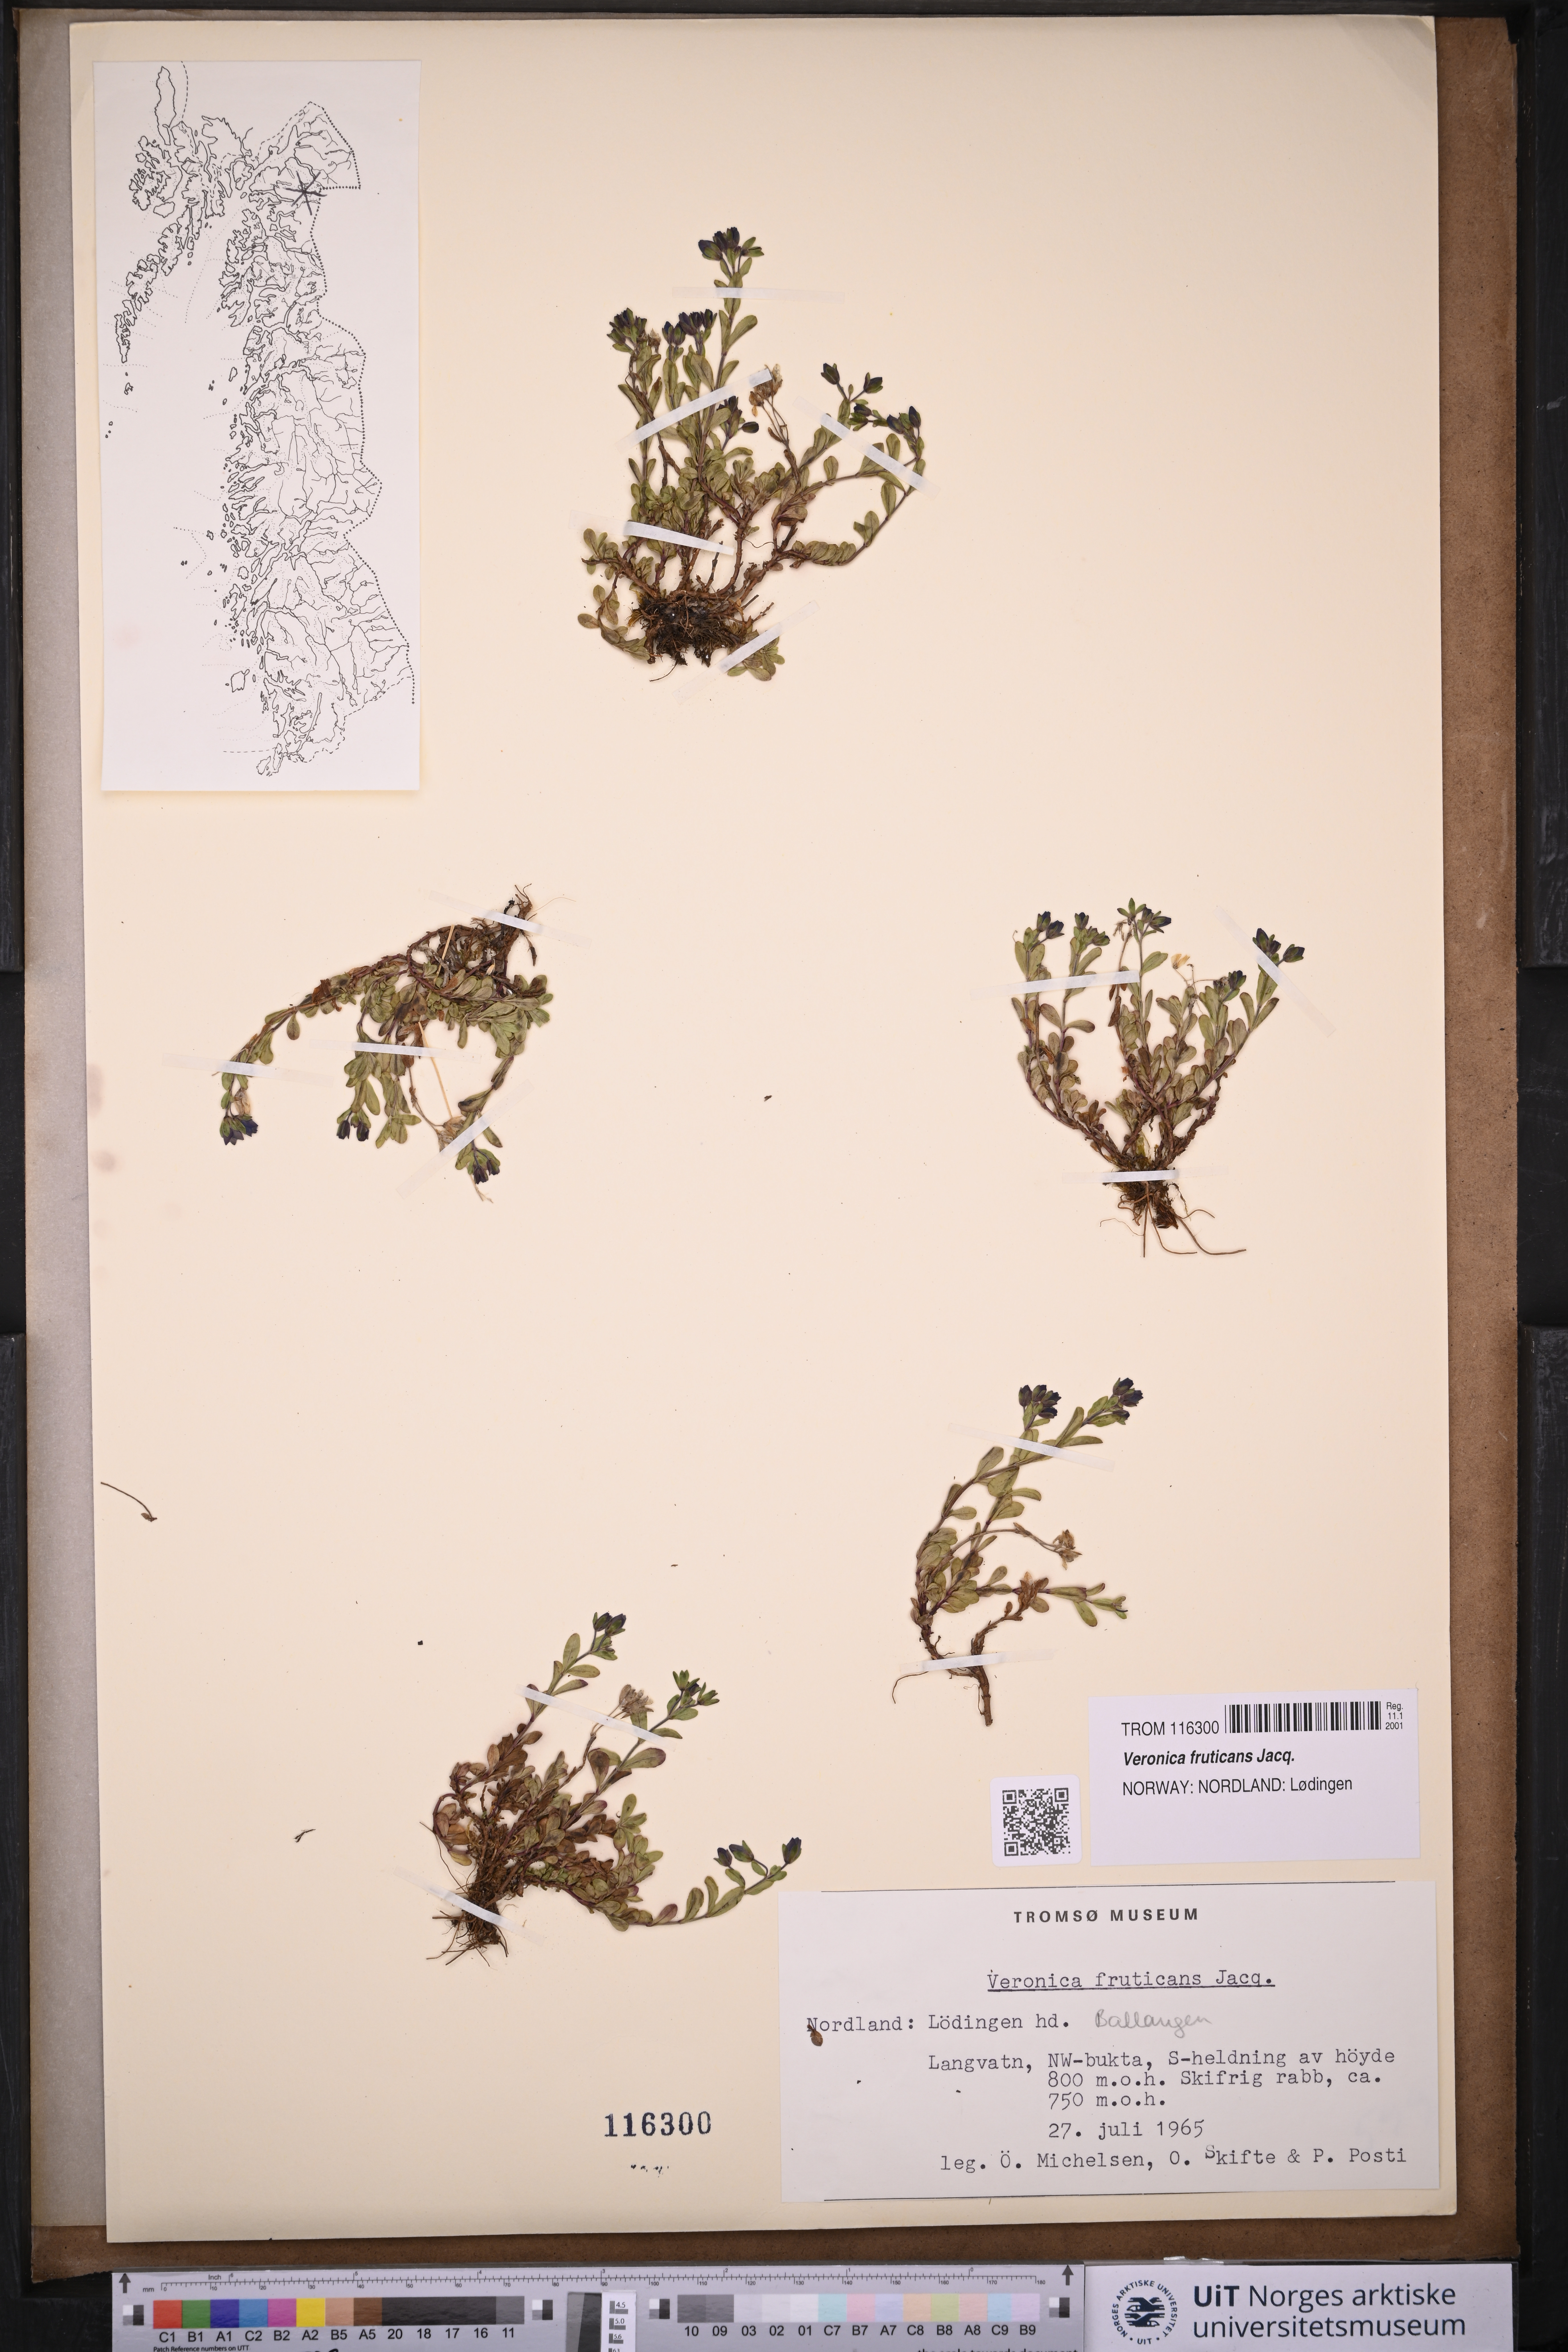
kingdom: Plantae
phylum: Tracheophyta
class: Magnoliopsida
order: Lamiales
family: Plantaginaceae
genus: Veronica
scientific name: Veronica fruticans
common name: Rock speedwell
